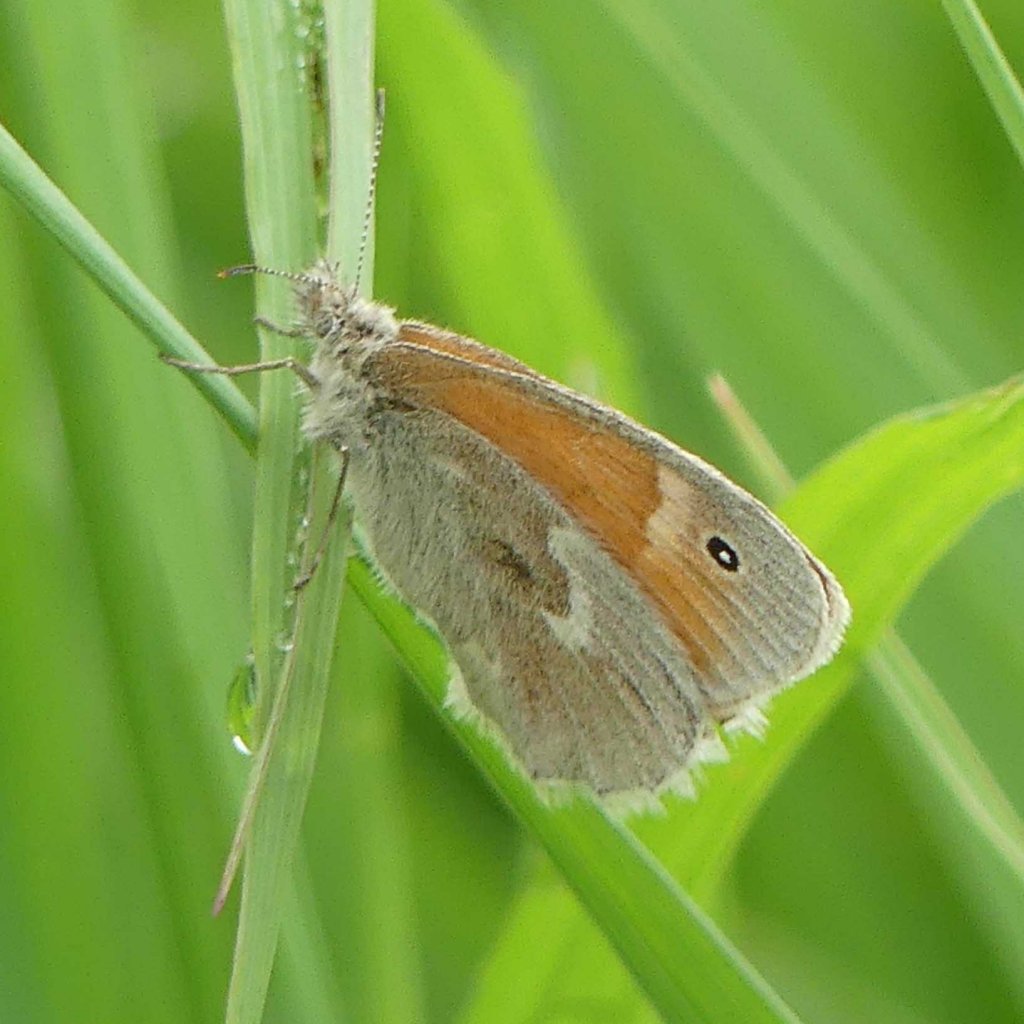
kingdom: Animalia
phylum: Arthropoda
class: Insecta
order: Lepidoptera
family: Nymphalidae
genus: Coenonympha
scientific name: Coenonympha tullia
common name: Large Heath
